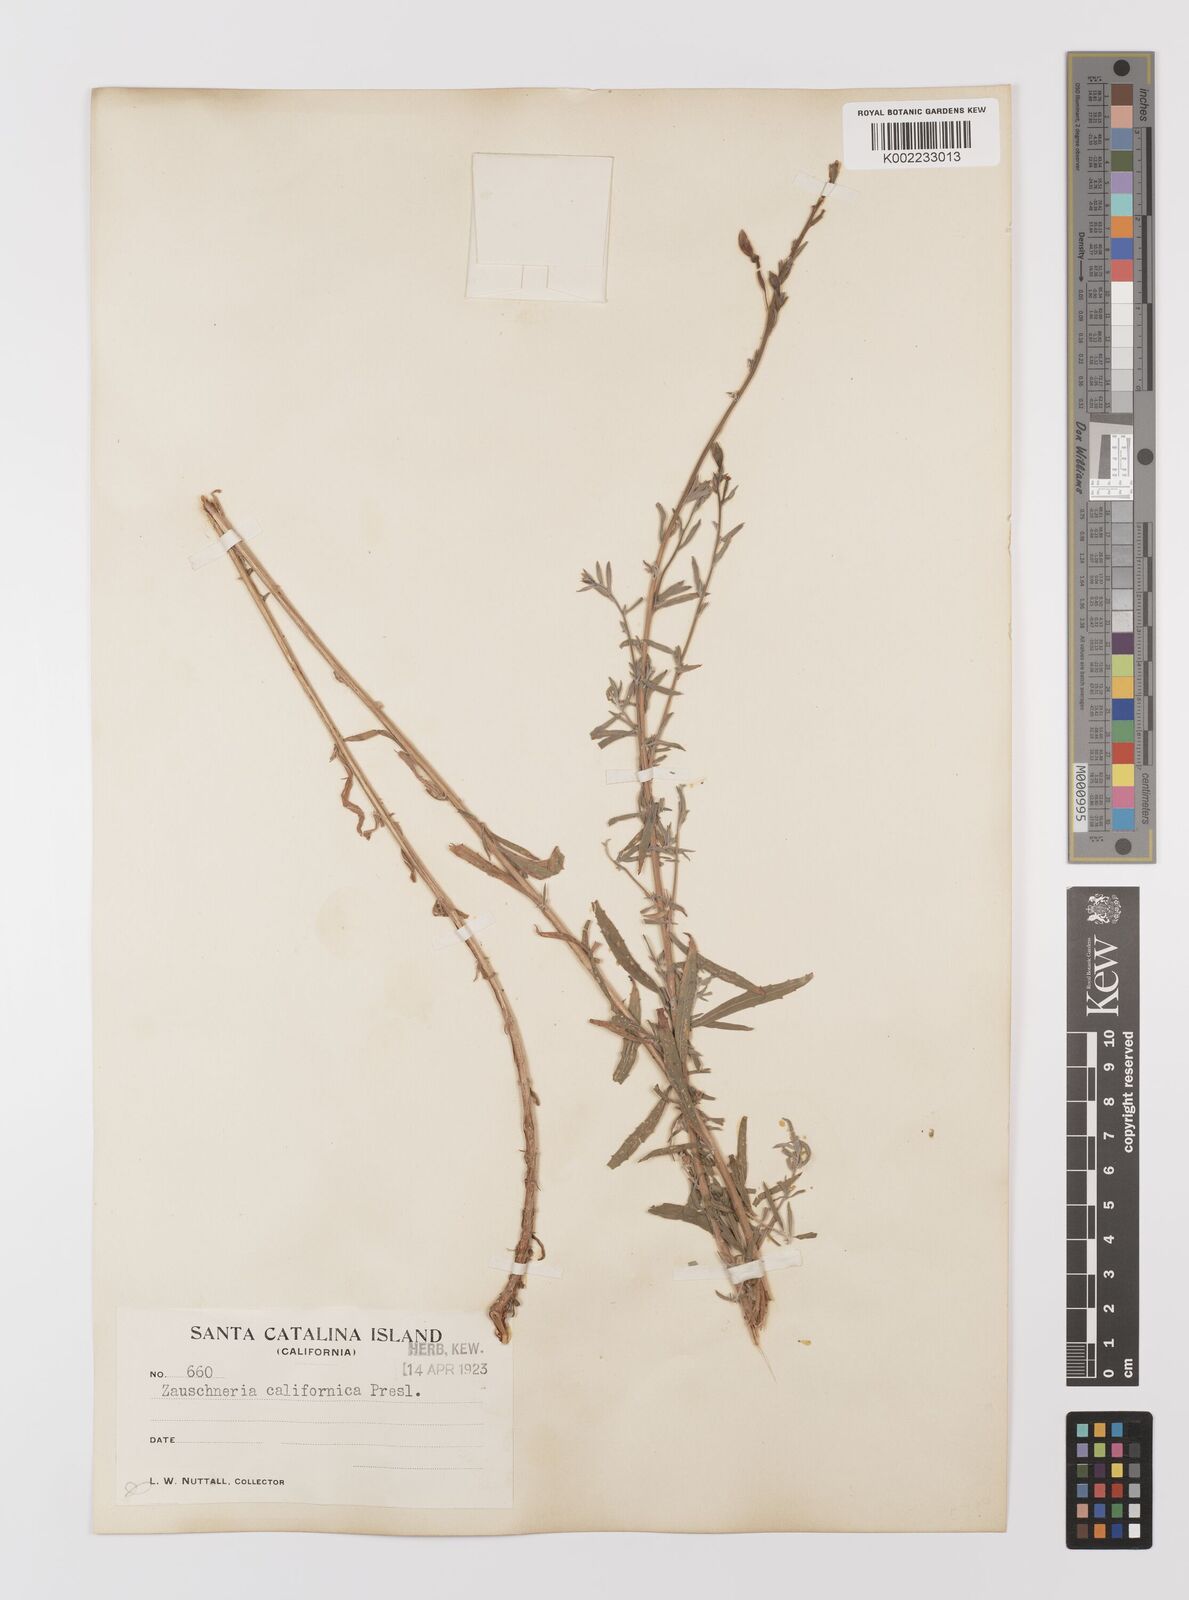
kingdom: Plantae
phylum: Tracheophyta
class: Magnoliopsida
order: Myrtales
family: Onagraceae
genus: Epilobium
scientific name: Epilobium canum
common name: California-fuchsia
